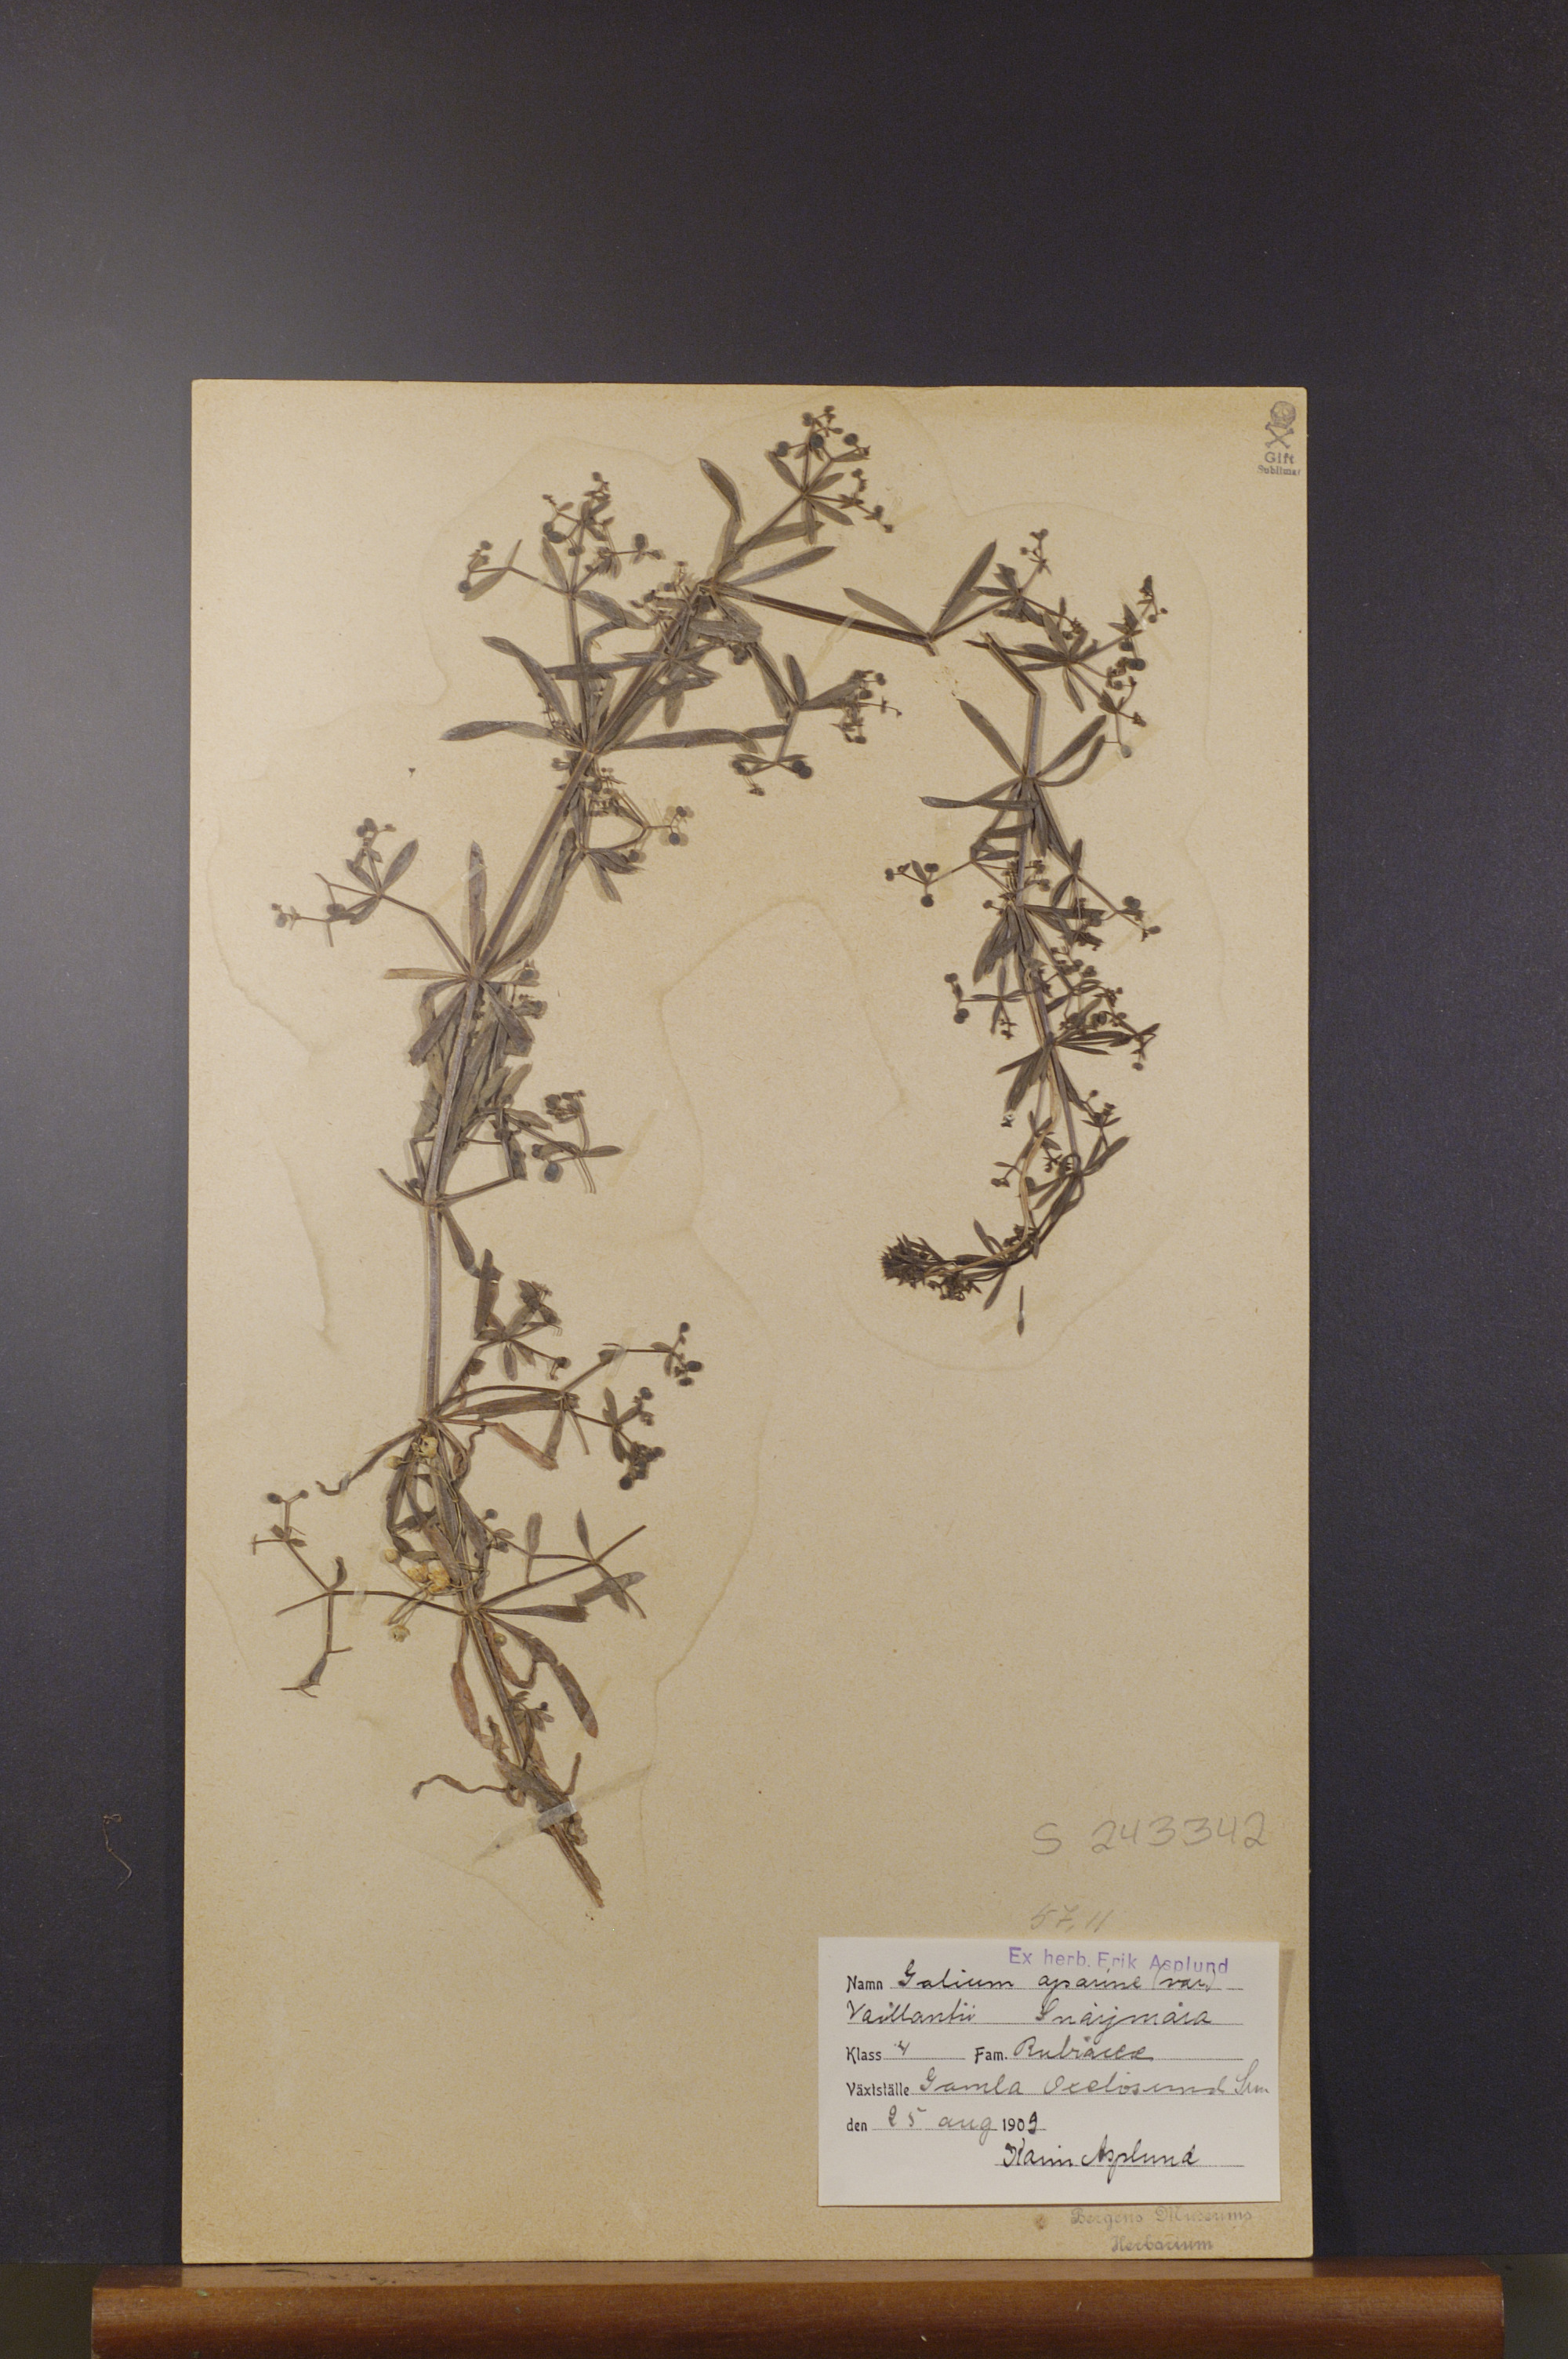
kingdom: Plantae
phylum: Tracheophyta
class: Magnoliopsida
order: Gentianales
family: Rubiaceae
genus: Galium
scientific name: Galium aparine
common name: Cleavers
